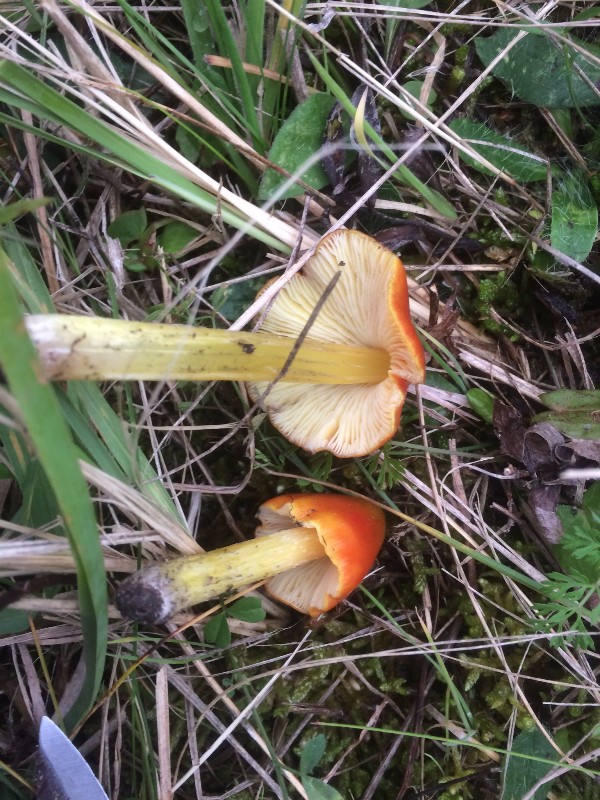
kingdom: Fungi
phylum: Basidiomycota
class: Agaricomycetes
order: Agaricales
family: Hygrophoraceae
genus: Hygrocybe
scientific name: Hygrocybe conica
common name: kegle-vokshat
